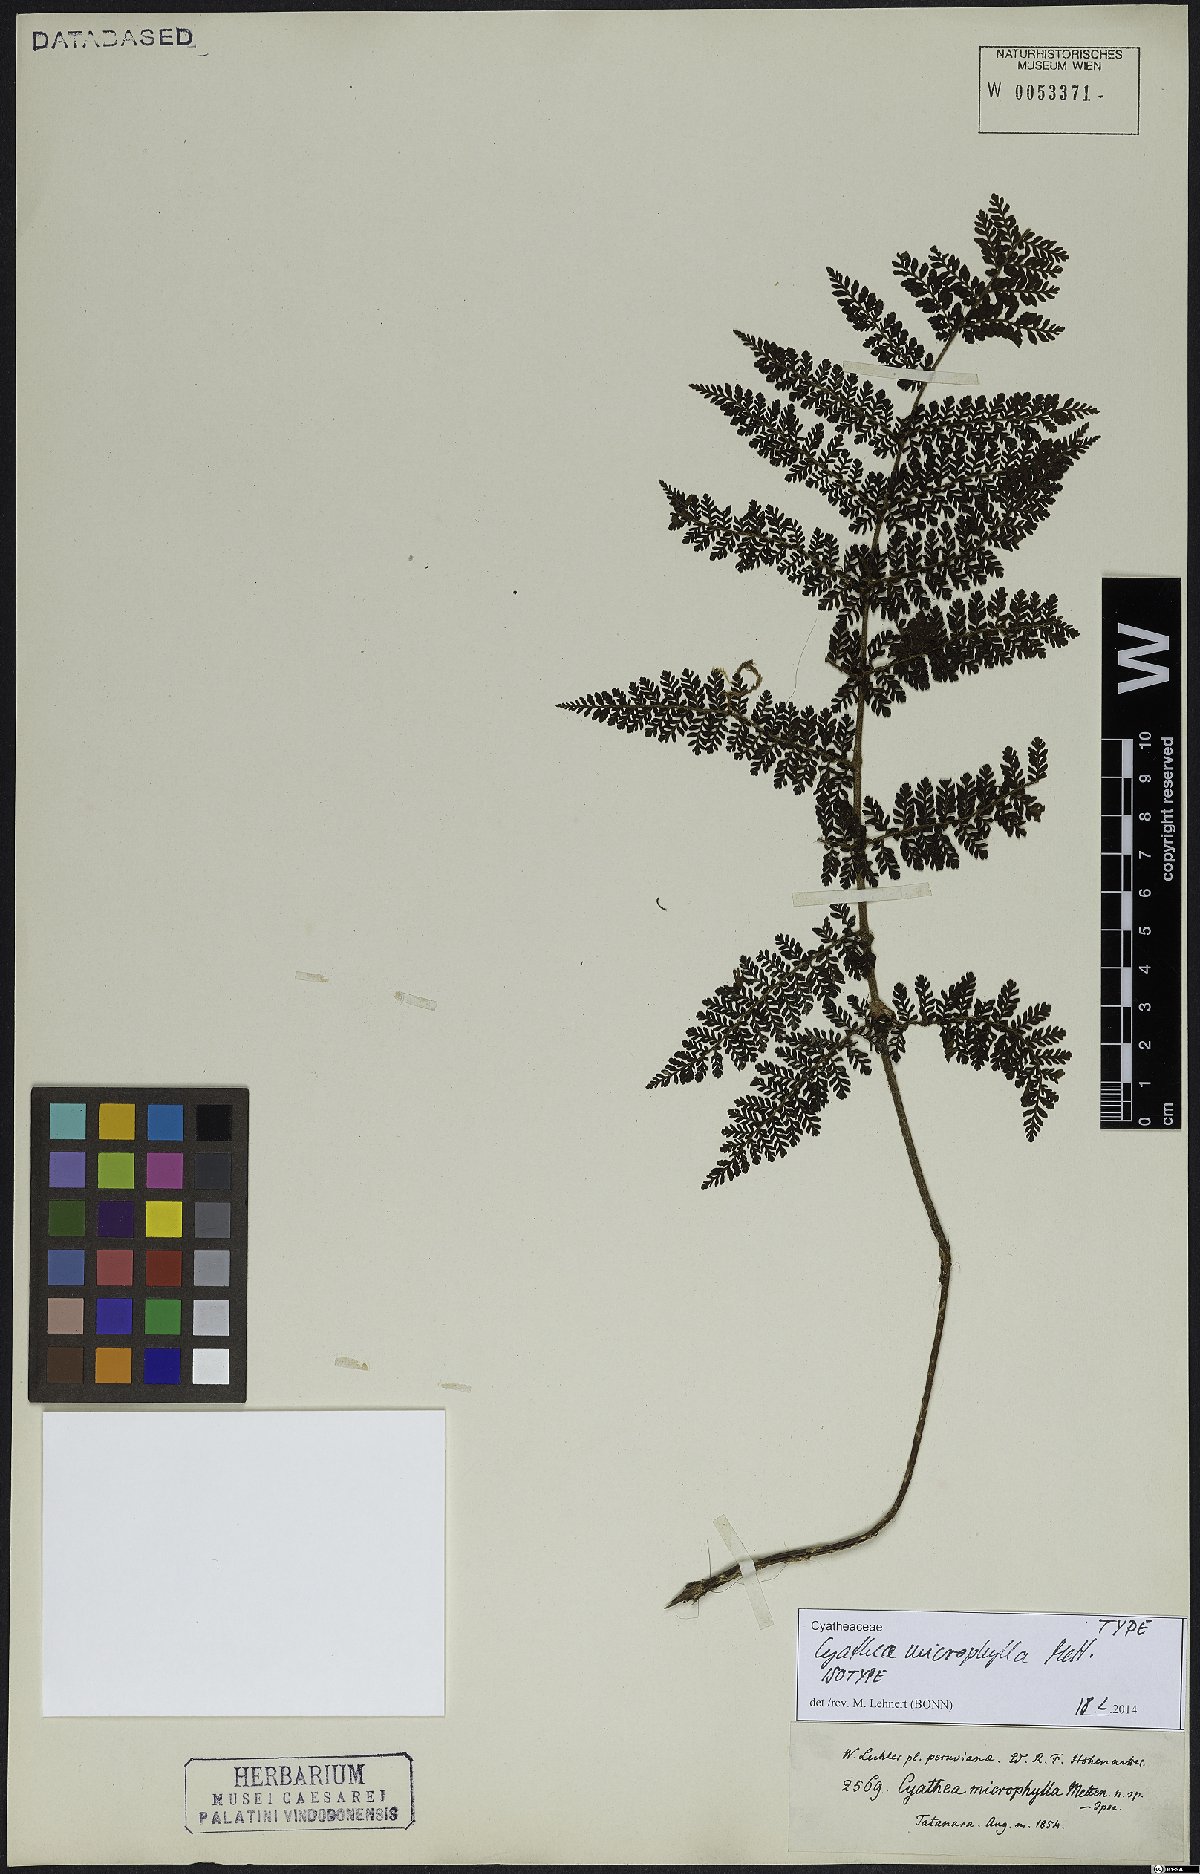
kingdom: Plantae
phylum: Tracheophyta
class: Polypodiopsida
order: Cyatheales
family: Cyatheaceae
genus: Cyathea
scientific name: Cyathea microphylla
